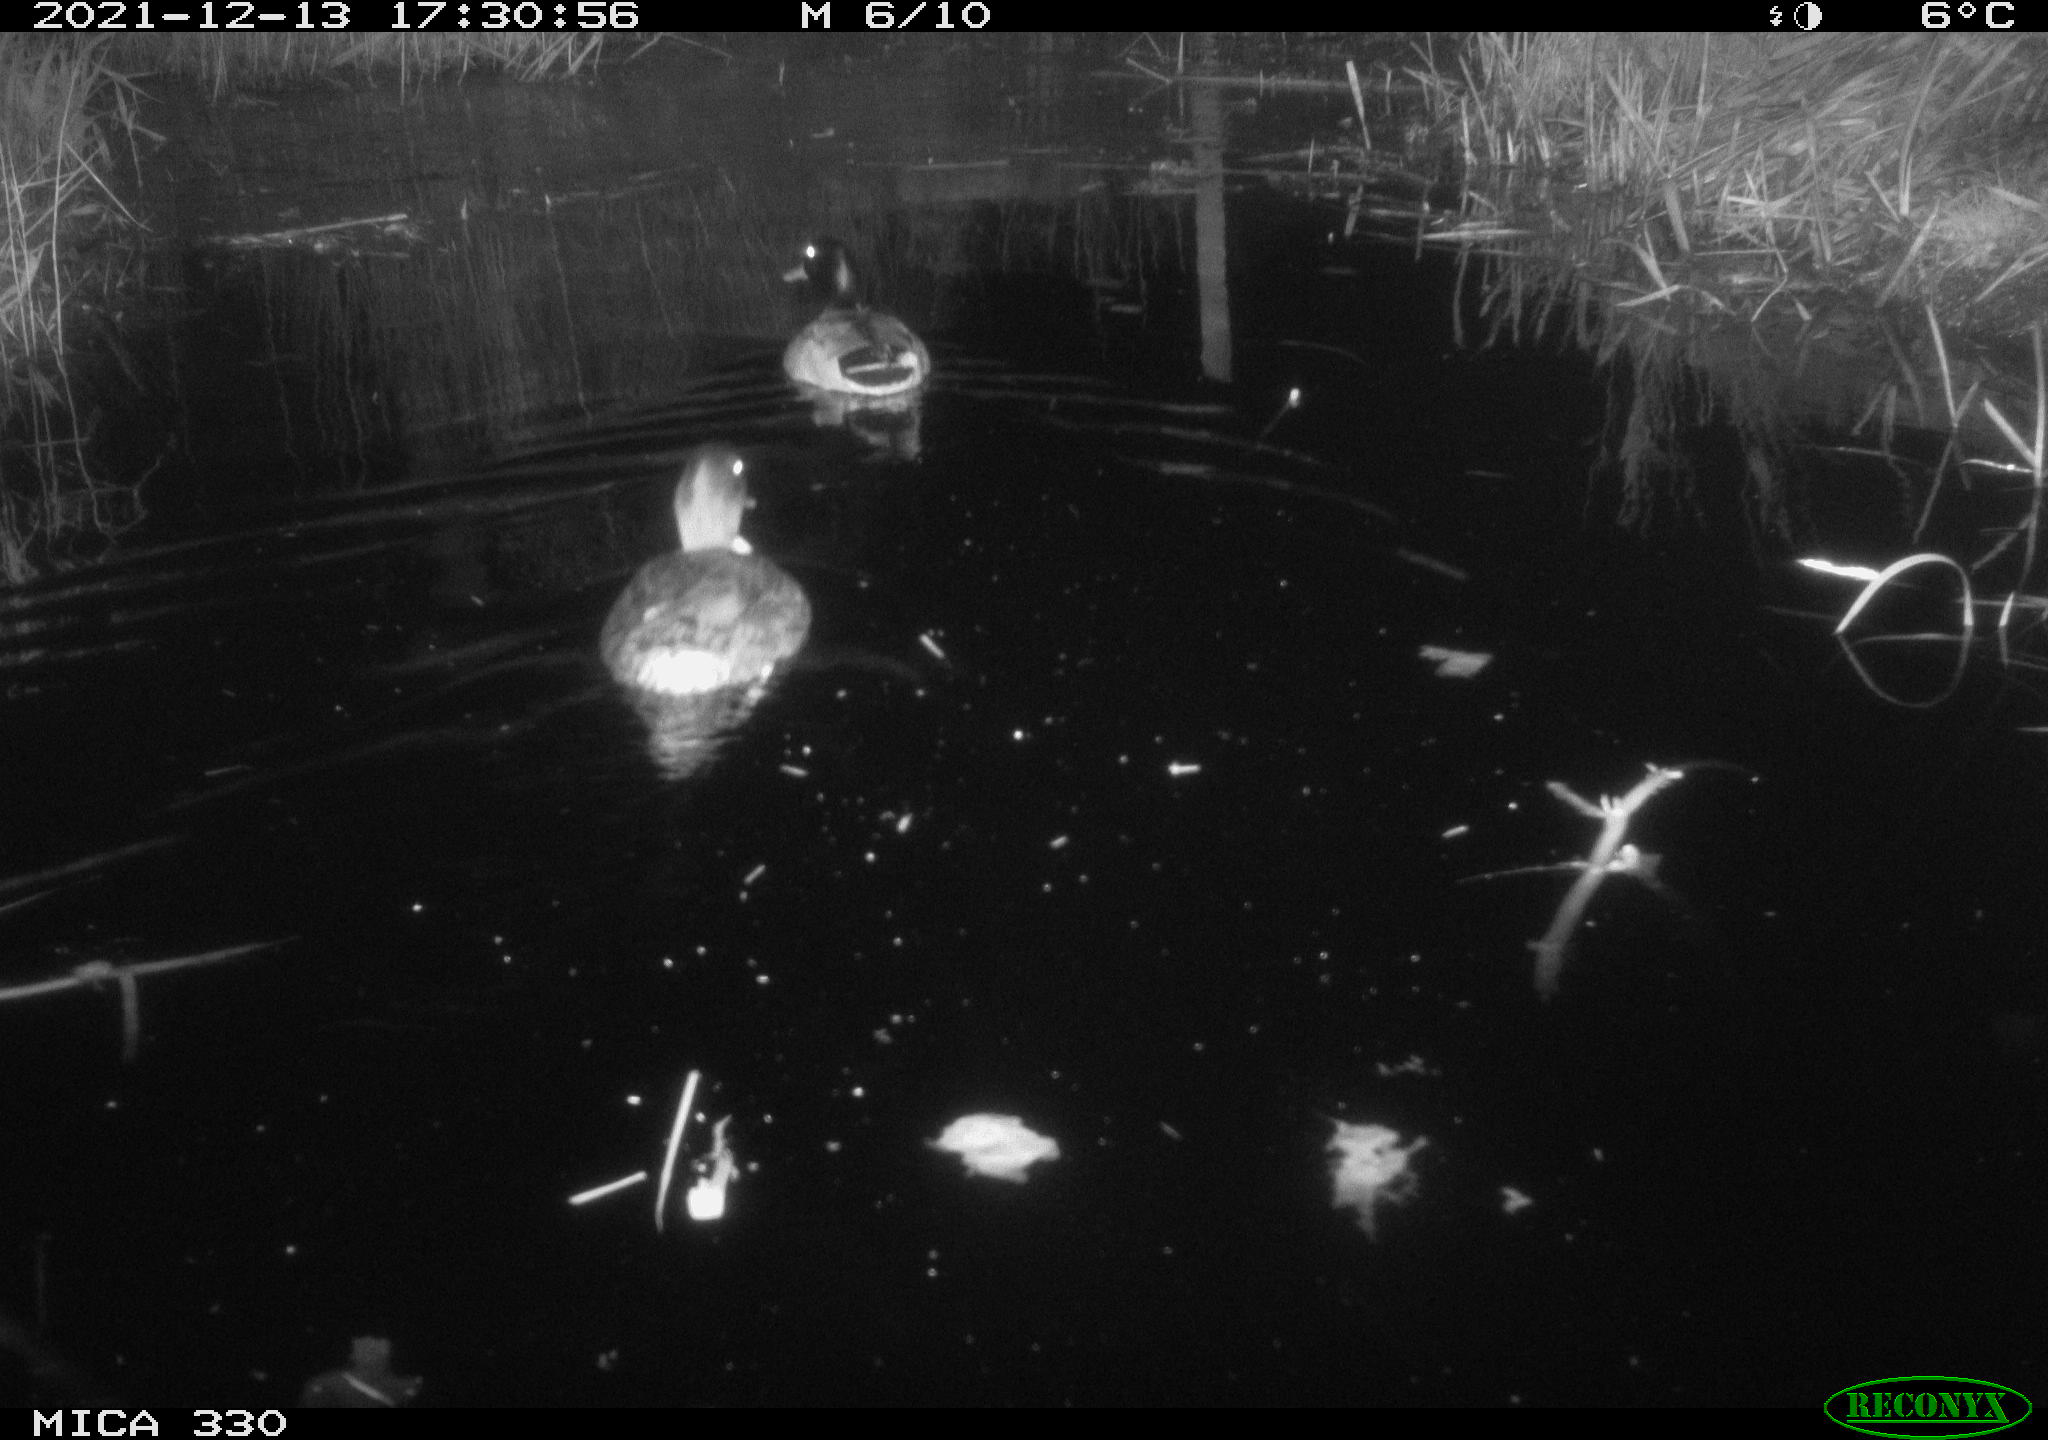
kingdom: Animalia
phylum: Chordata
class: Aves
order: Anseriformes
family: Anatidae
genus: Anas
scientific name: Anas platyrhynchos
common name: Mallard
